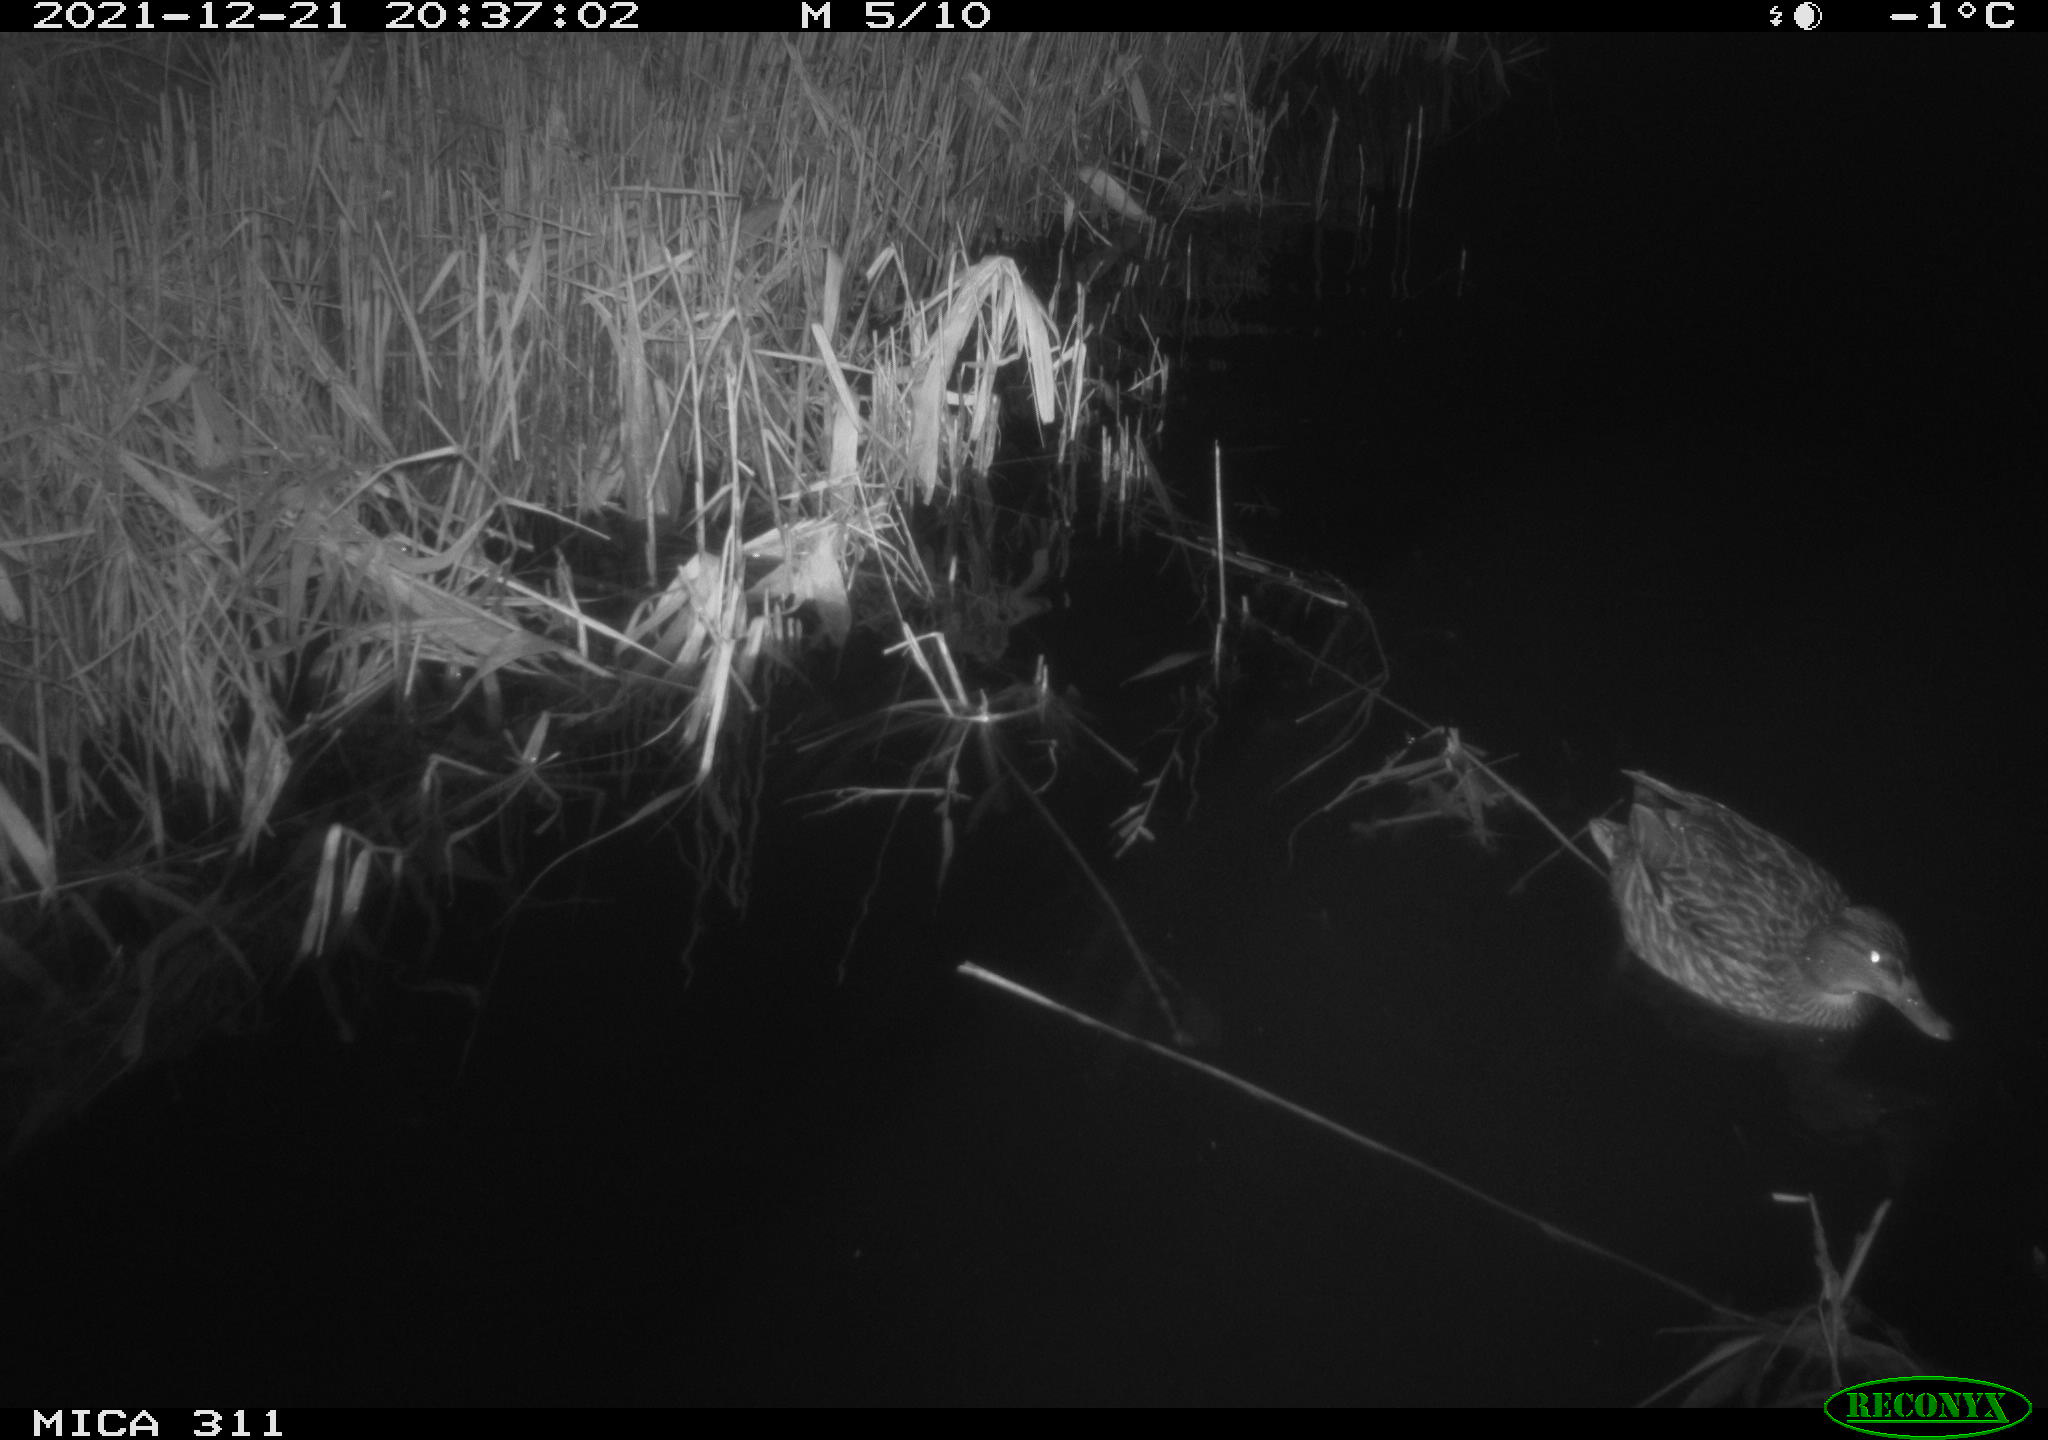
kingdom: Animalia
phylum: Chordata
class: Aves
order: Anseriformes
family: Anatidae
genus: Anas
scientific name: Anas platyrhynchos
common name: Mallard
